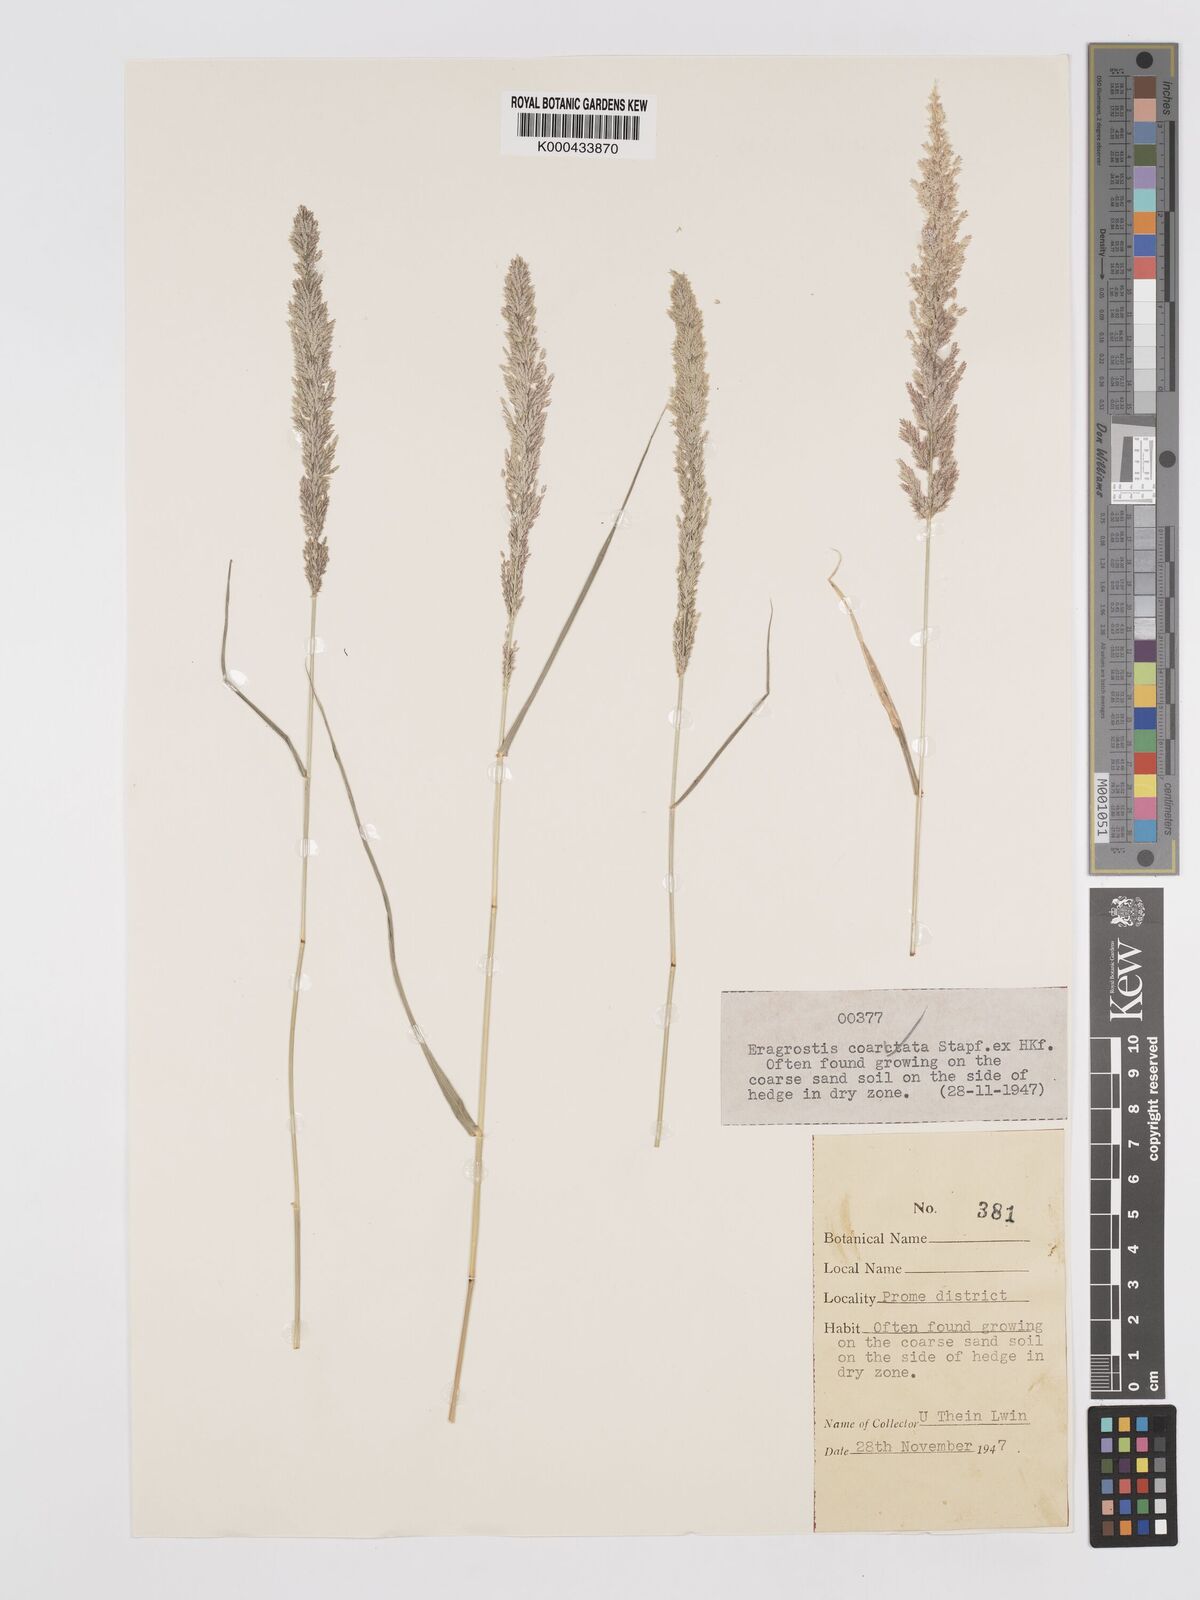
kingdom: Plantae
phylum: Tracheophyta
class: Liliopsida
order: Poales
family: Poaceae
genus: Eragrostis
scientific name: Eragrostis coarctata
